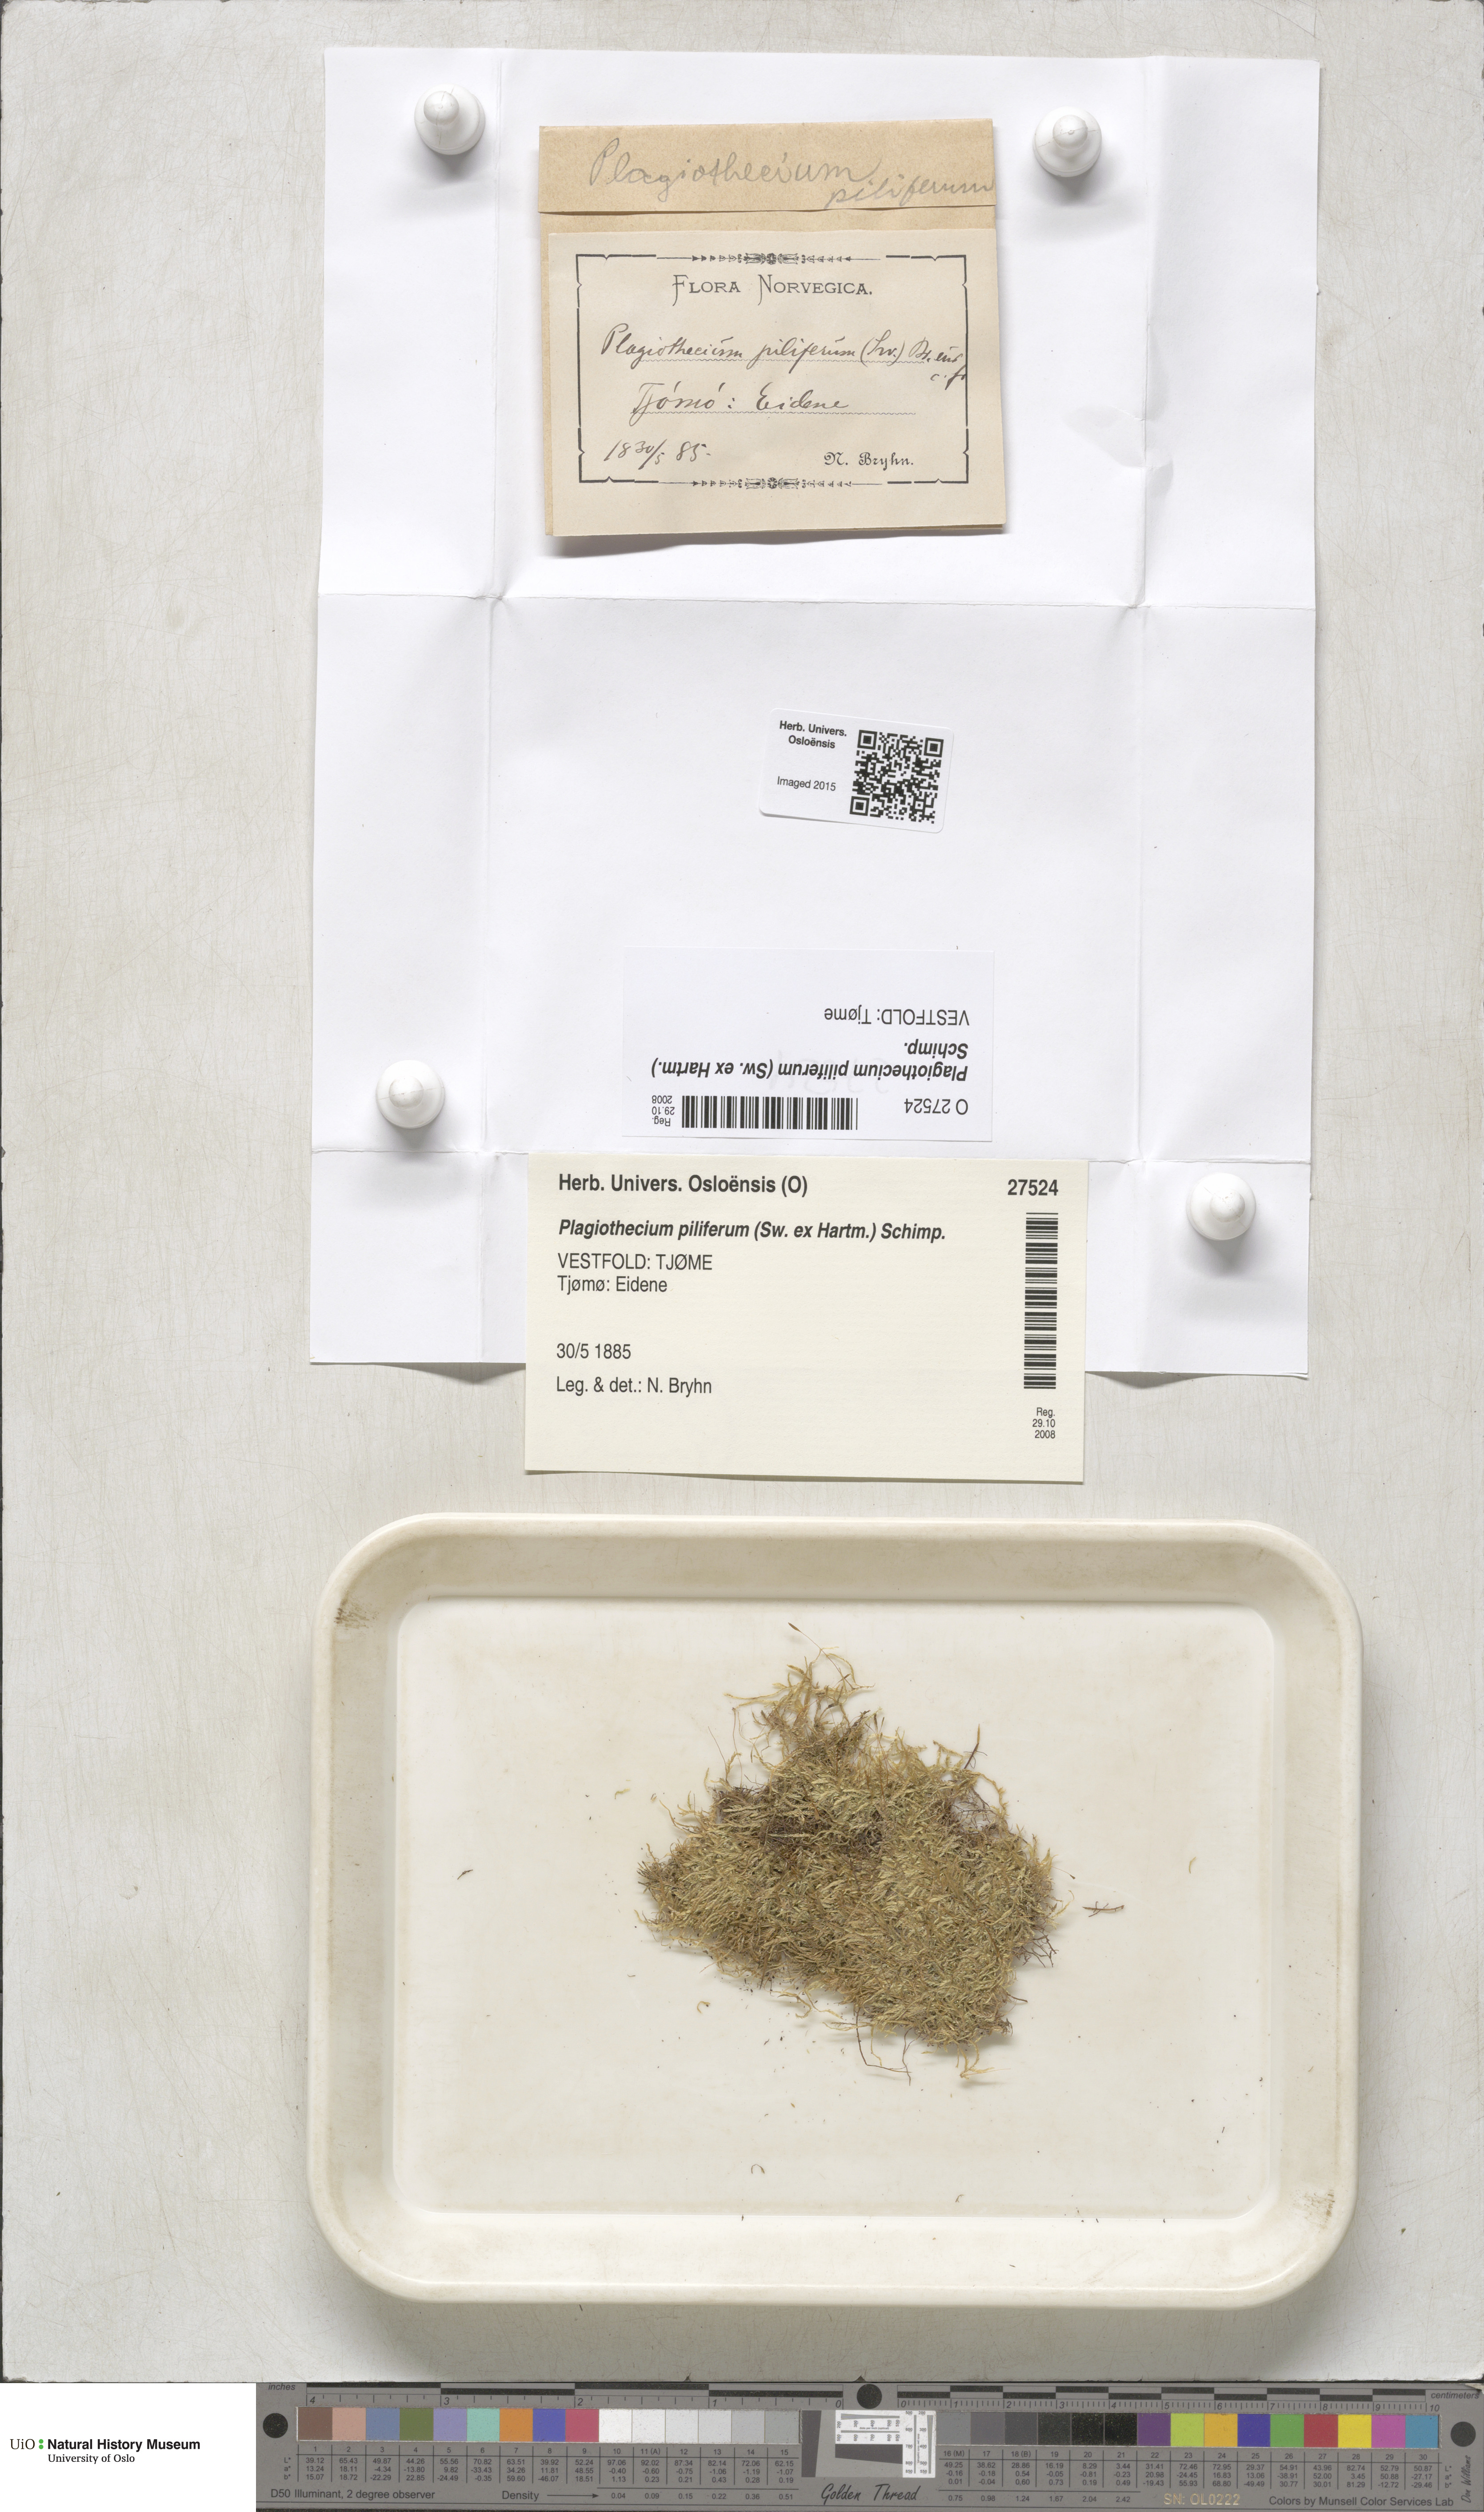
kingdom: Plantae
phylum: Bryophyta
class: Bryopsida
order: Hypnales
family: Plagiotheciaceae
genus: Rectithecium
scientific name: Rectithecium piliferum
